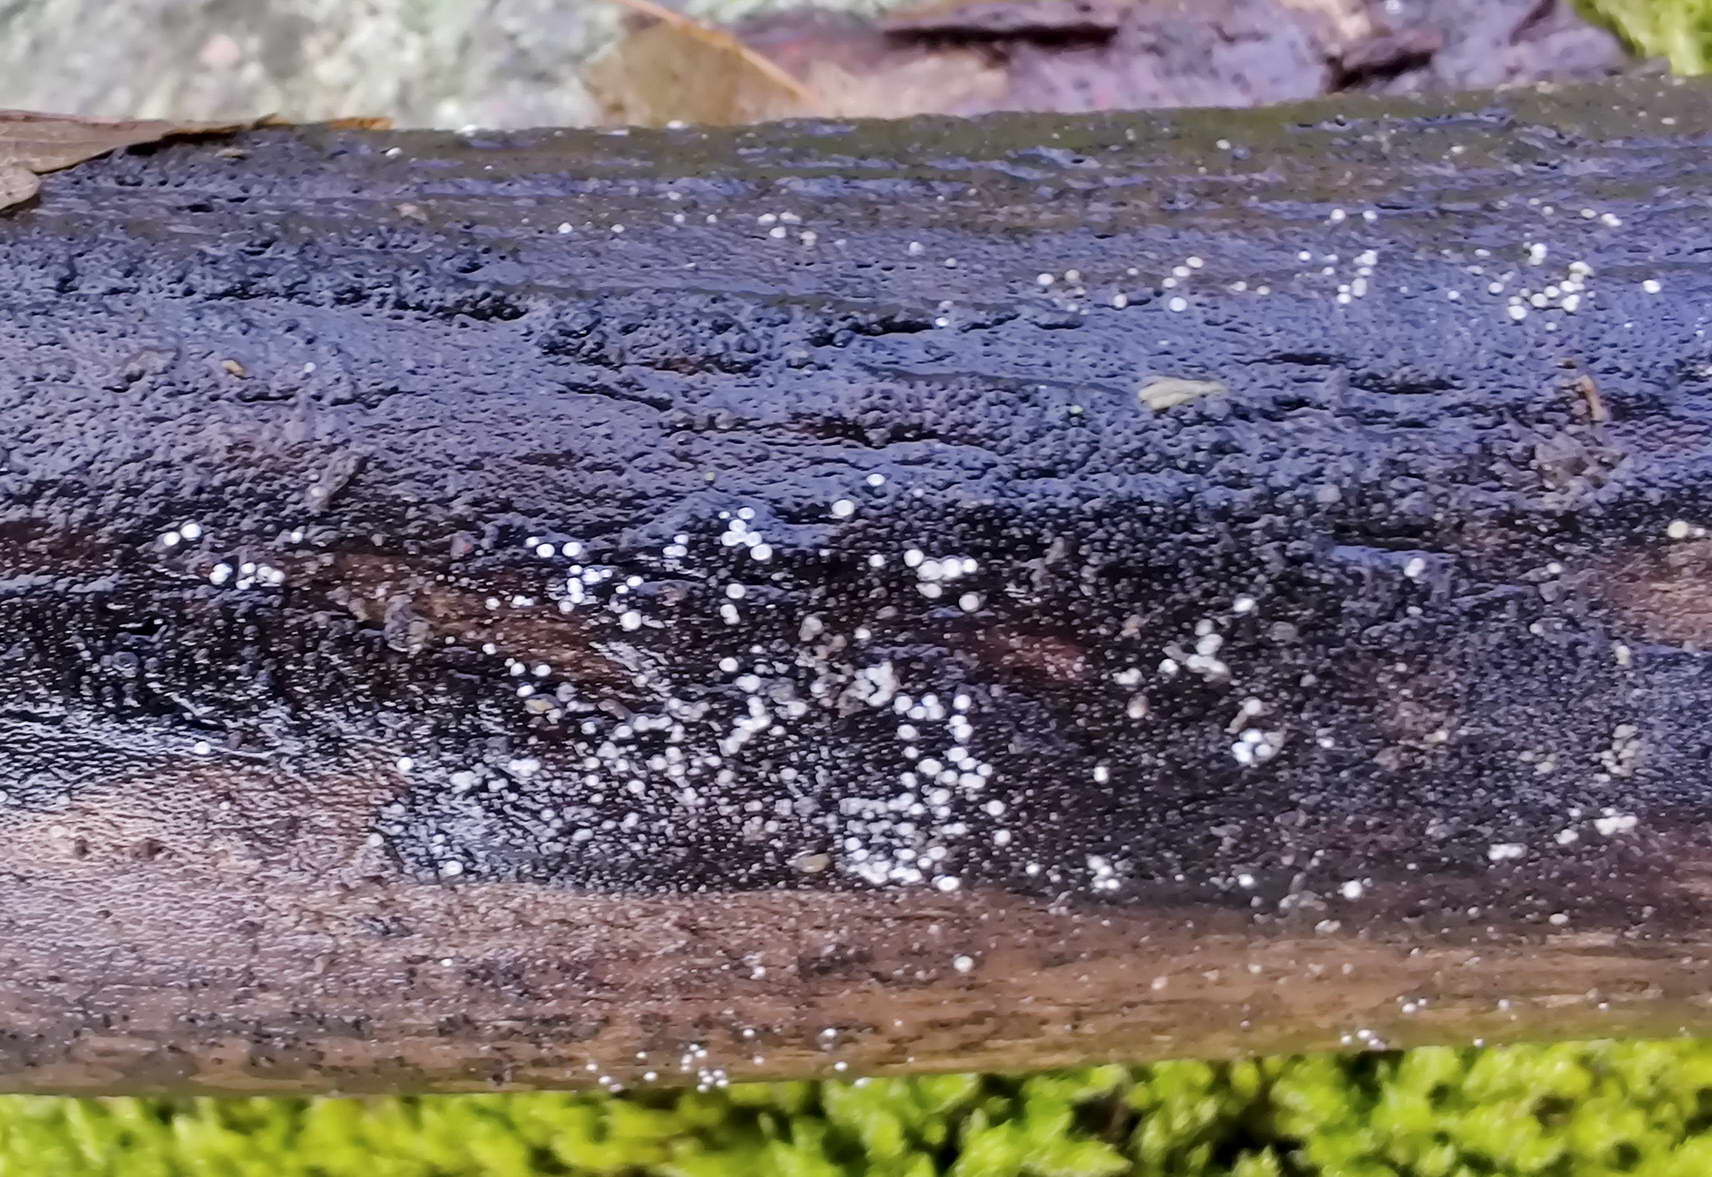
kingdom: Fungi
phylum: Ascomycota
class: Leotiomycetes
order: Helotiales
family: Hyaloscyphaceae
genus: Polydesmia
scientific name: Polydesmia pruinosa
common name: dunskive
